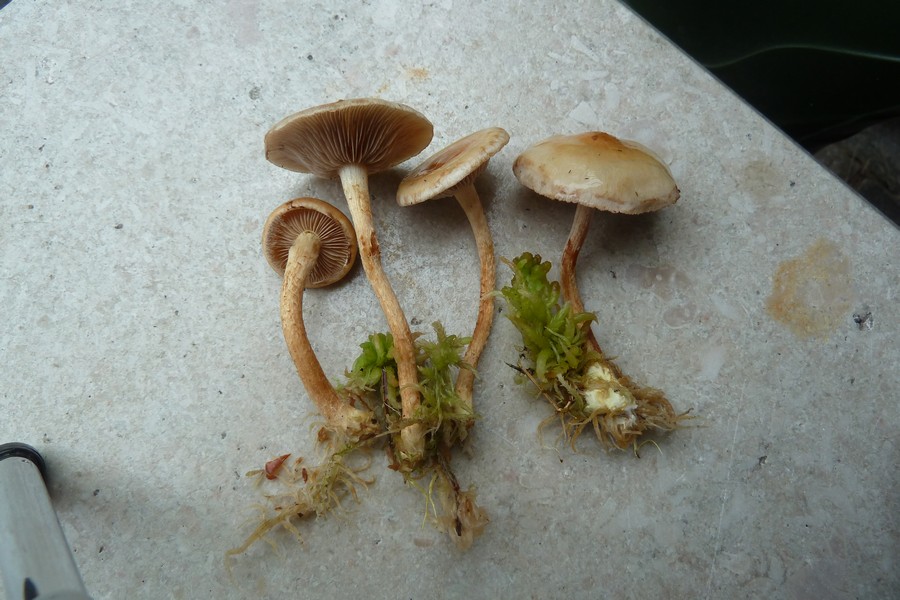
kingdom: Fungi
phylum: Basidiomycota
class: Agaricomycetes
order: Agaricales
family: Strophariaceae
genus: Pholiota
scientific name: Pholiota henningsii
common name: tørve-skælhat
